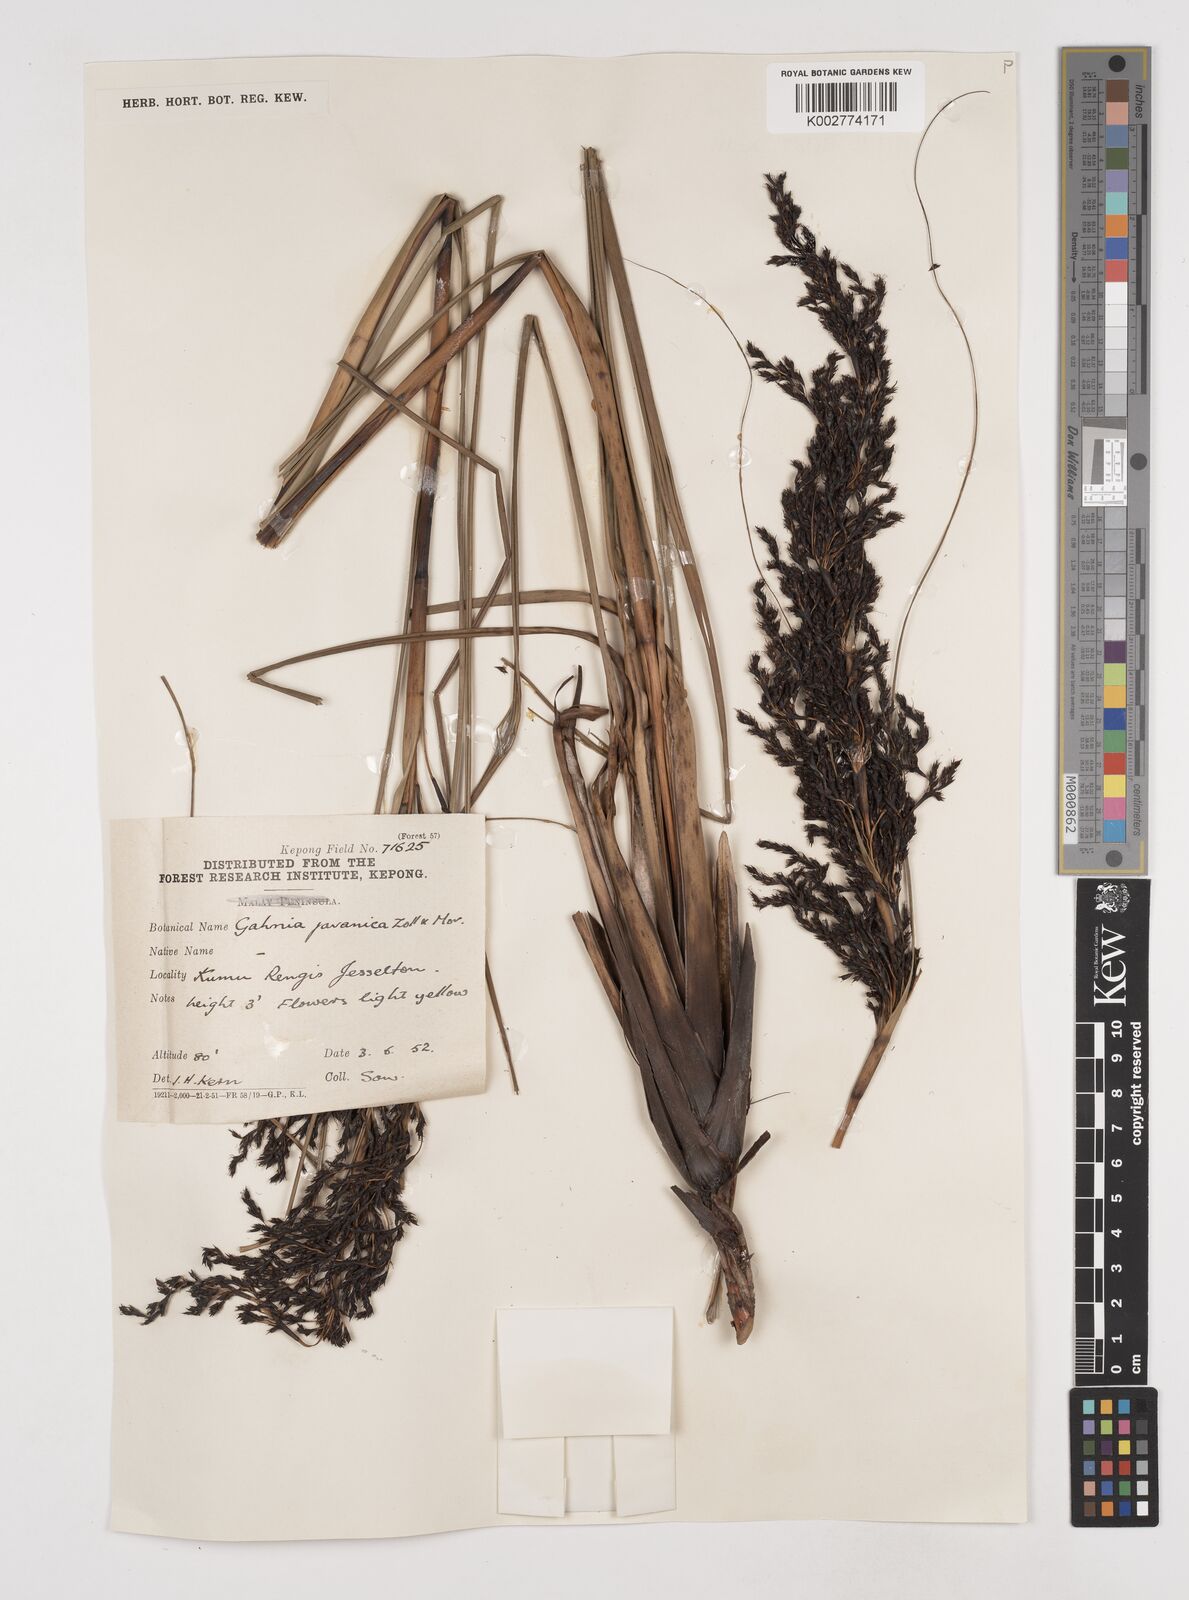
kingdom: Plantae
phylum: Tracheophyta
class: Liliopsida
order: Poales
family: Cyperaceae
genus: Gahnia
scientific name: Gahnia javanica
